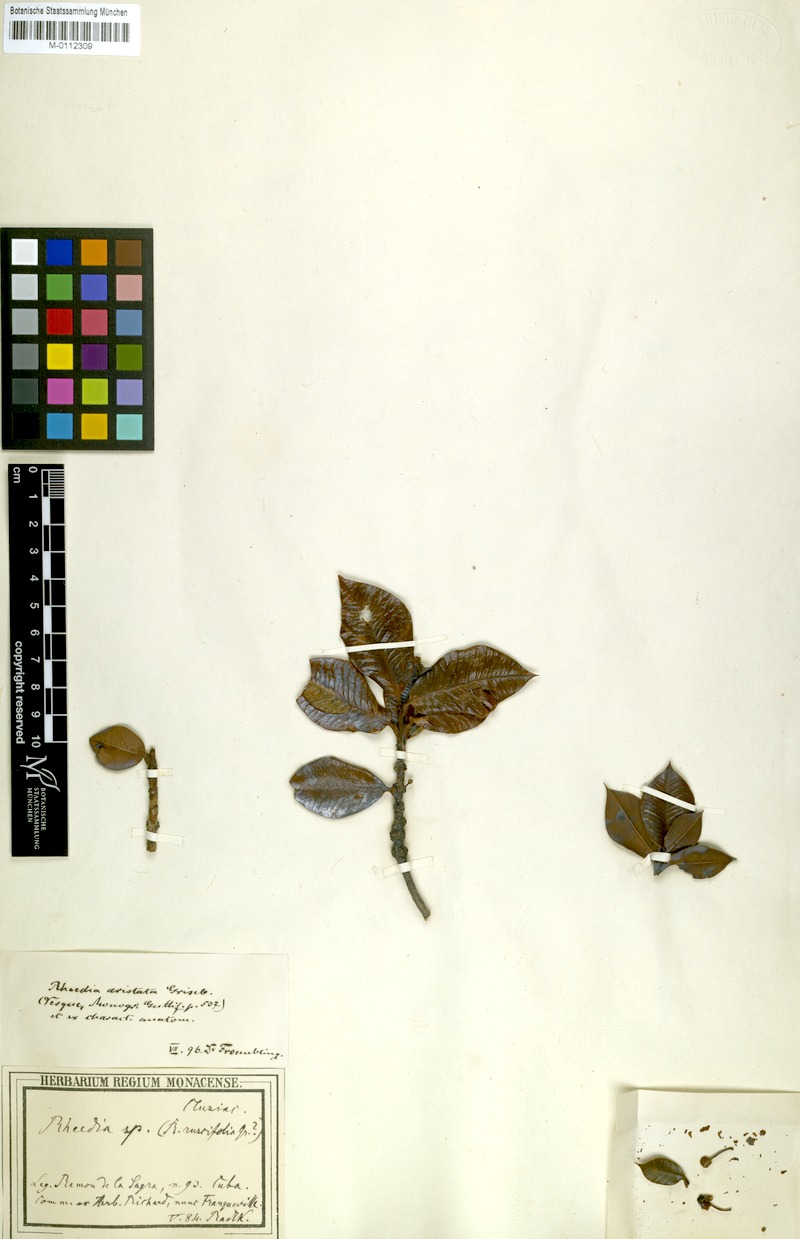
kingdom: Plantae
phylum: Tracheophyta
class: Magnoliopsida
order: Malpighiales
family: Clusiaceae
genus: Garcinia
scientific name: Garcinia aristata
